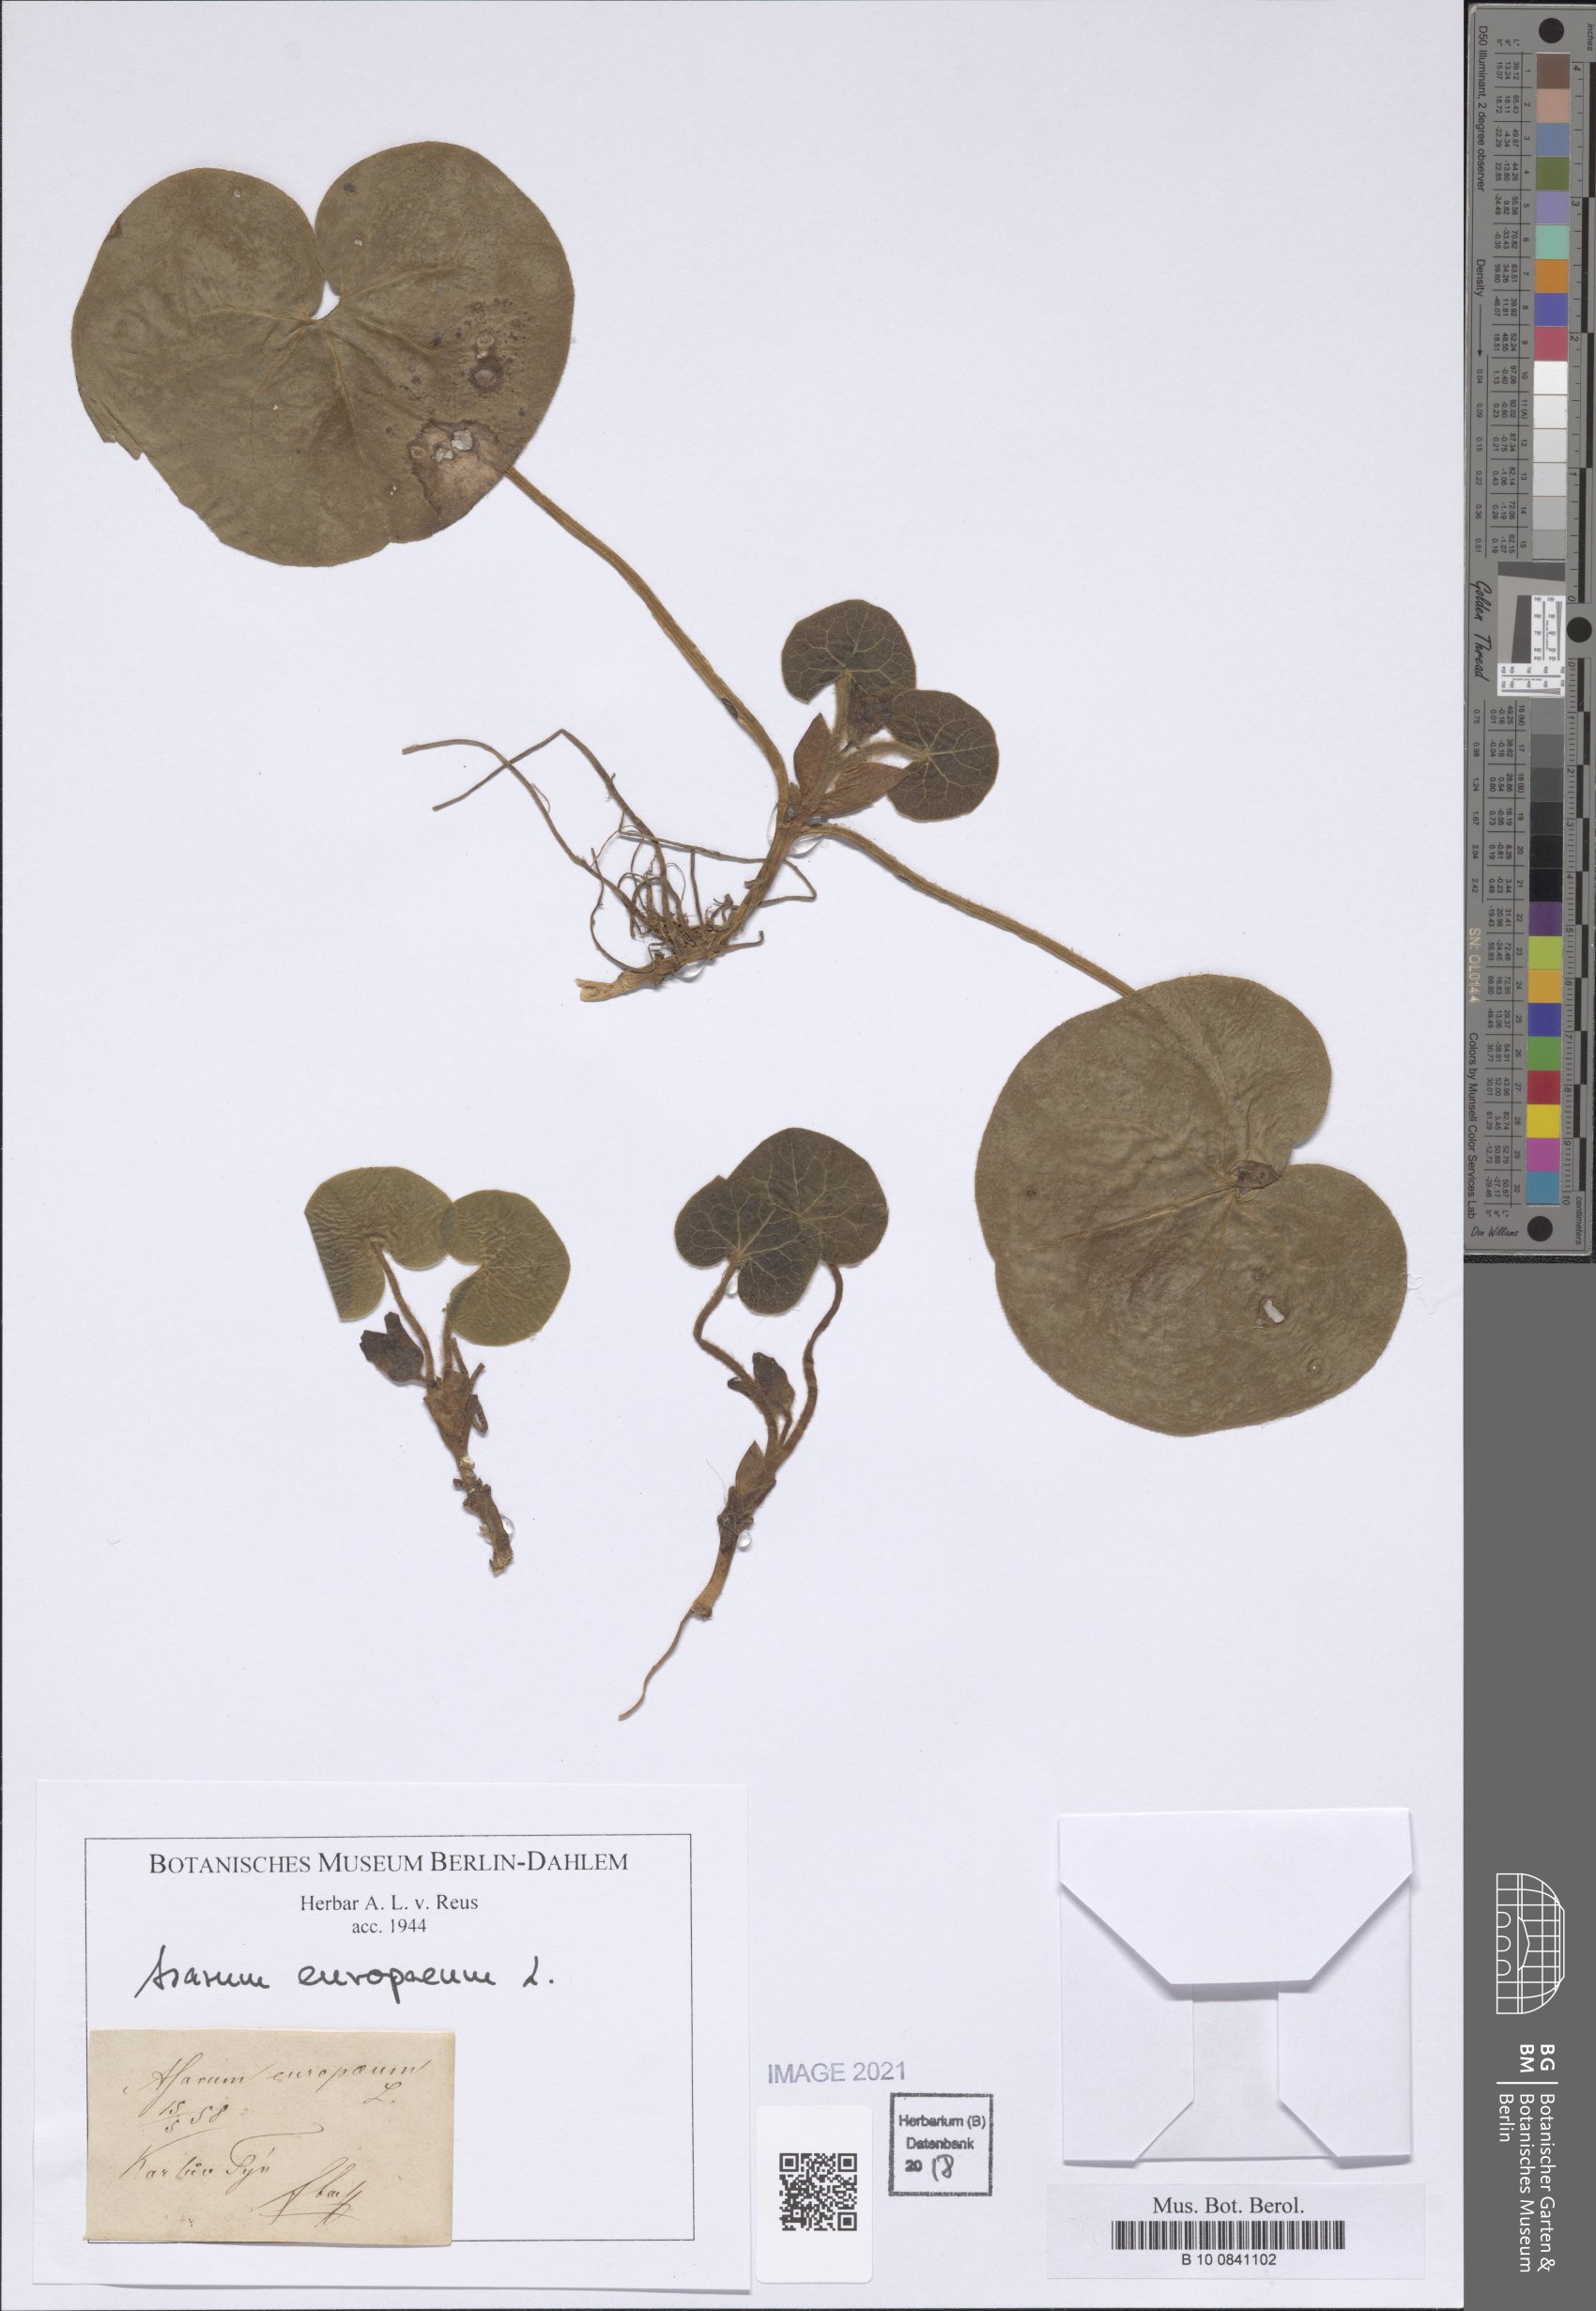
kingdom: Plantae
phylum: Tracheophyta
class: Magnoliopsida
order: Piperales
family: Aristolochiaceae
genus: Asarum
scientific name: Asarum europaeum
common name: Asarabacca
